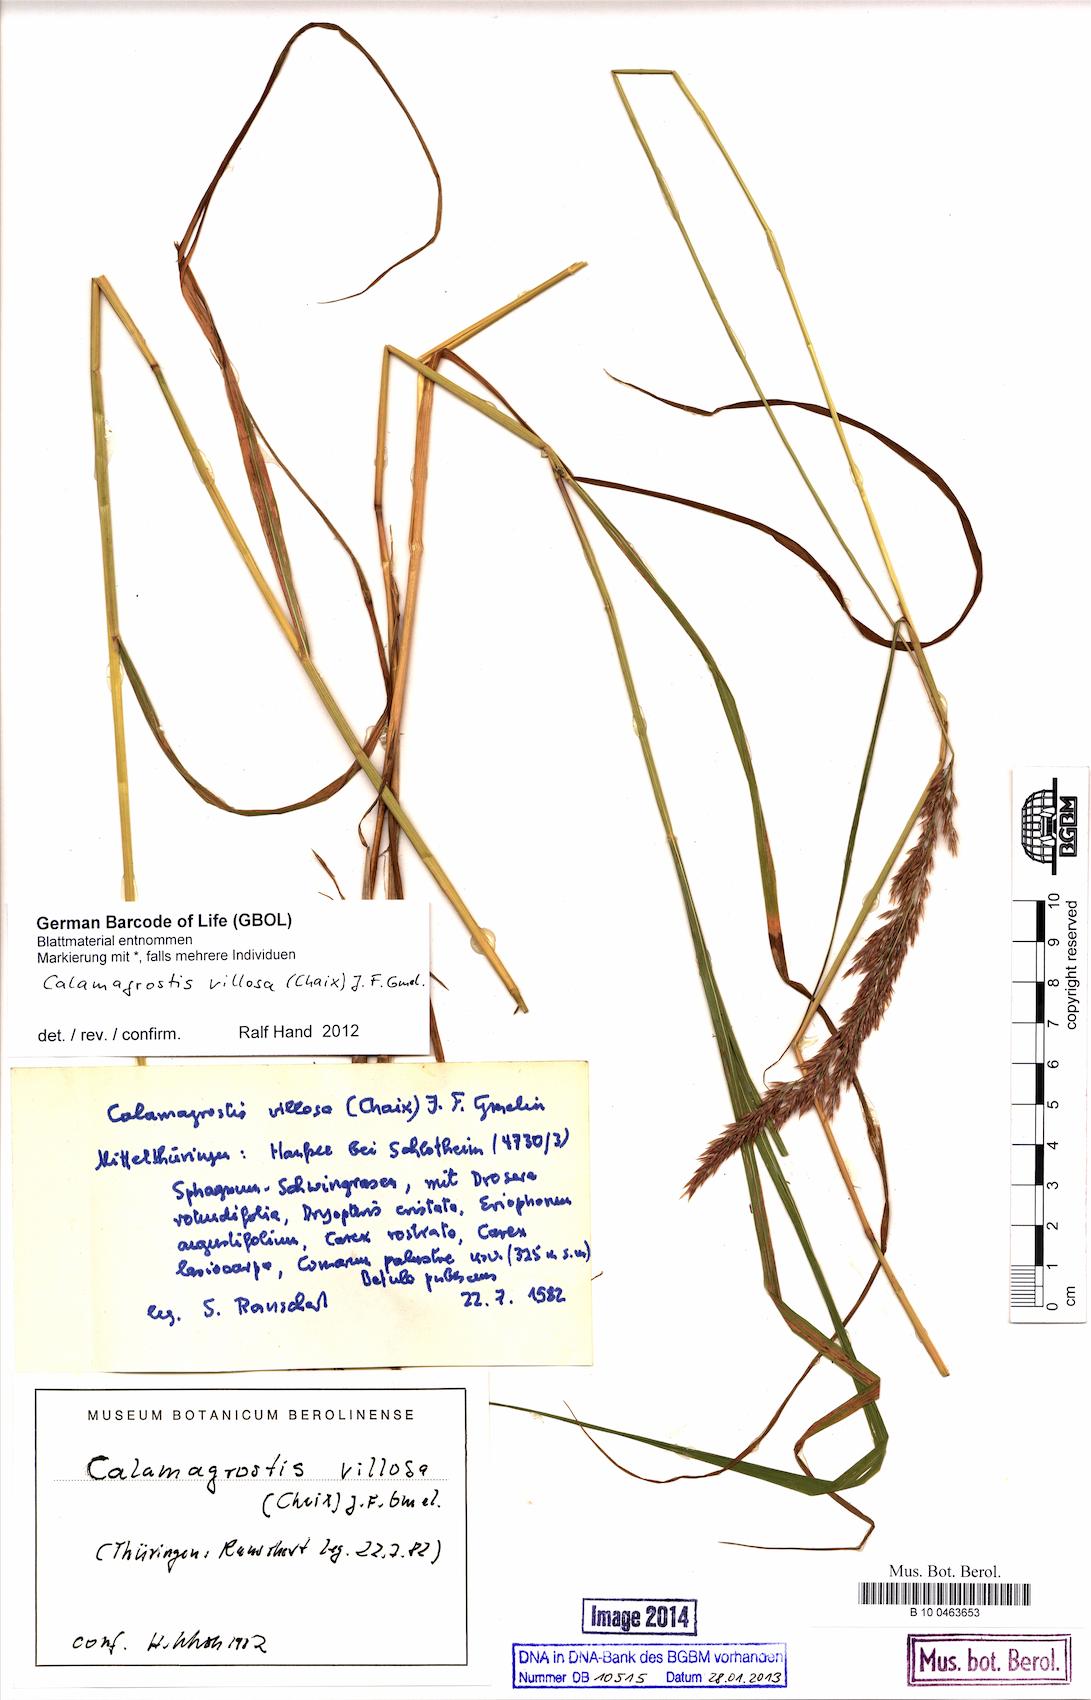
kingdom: Plantae
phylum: Tracheophyta
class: Liliopsida
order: Poales
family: Poaceae
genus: Calamagrostis
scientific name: Calamagrostis villosa
